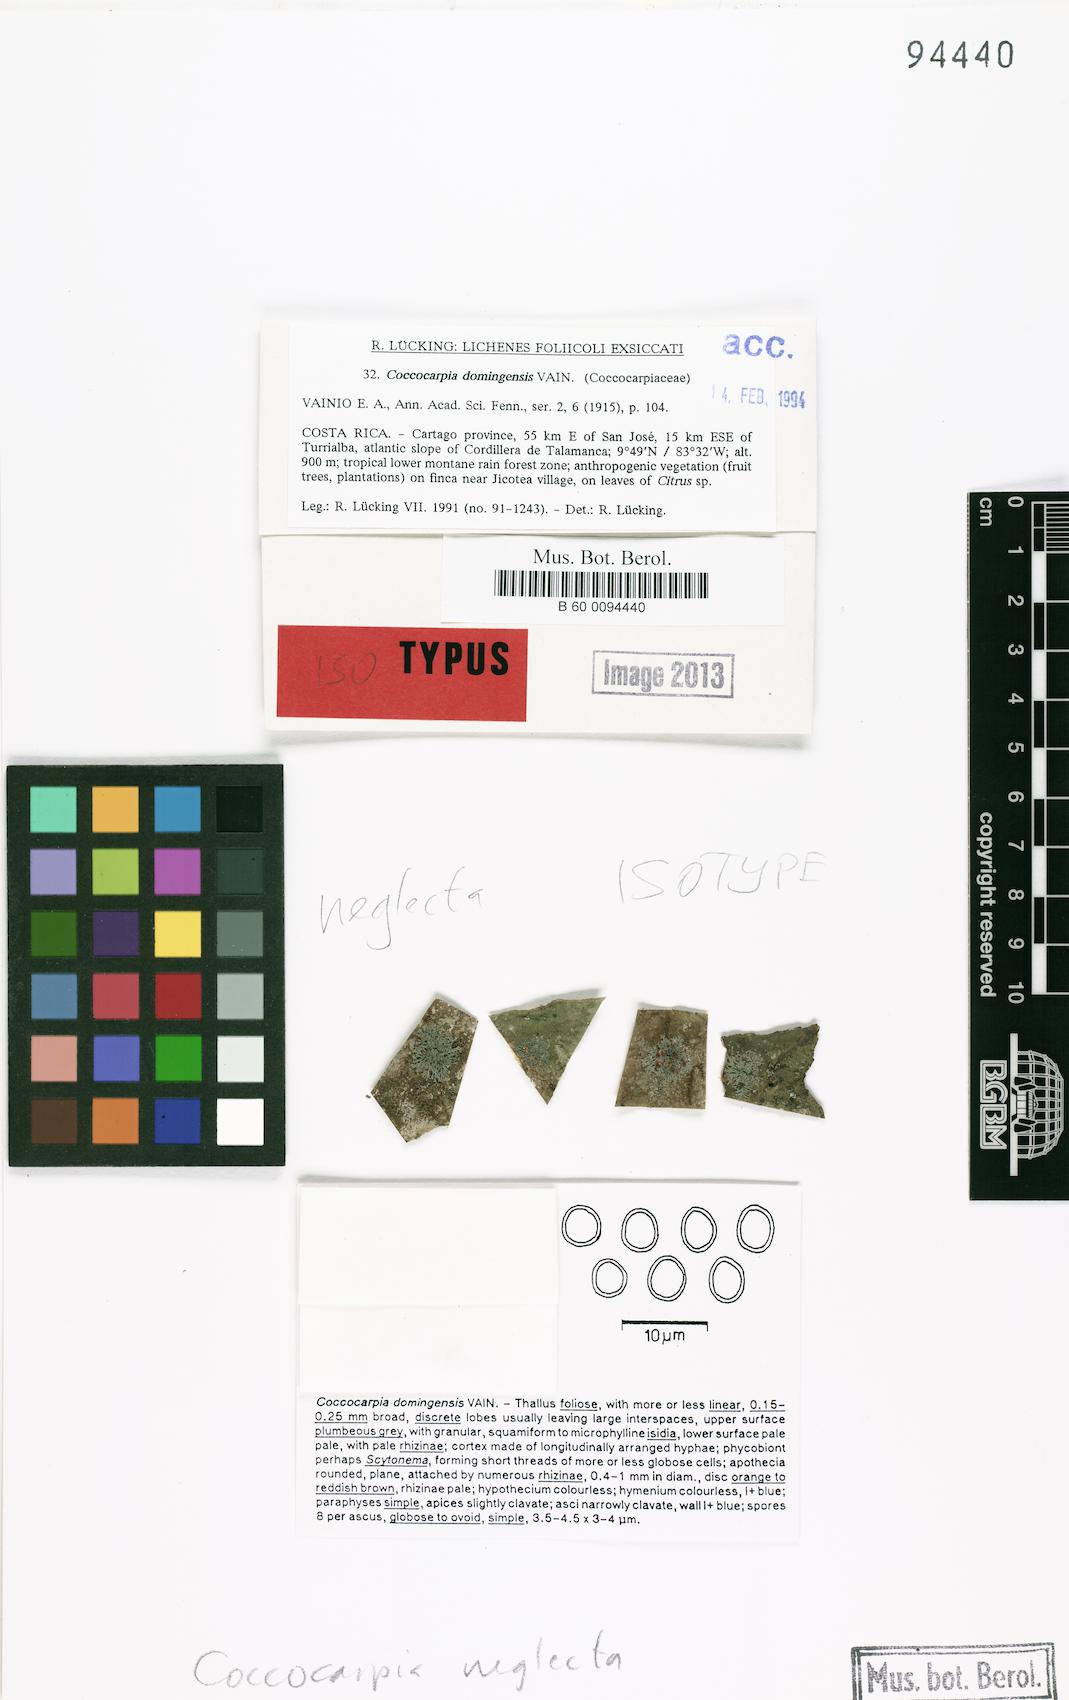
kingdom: Fungi
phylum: Ascomycota
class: Lecanoromycetes
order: Peltigerales
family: Coccocarpiaceae
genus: Coccocarpia
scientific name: Coccocarpia neglecta
